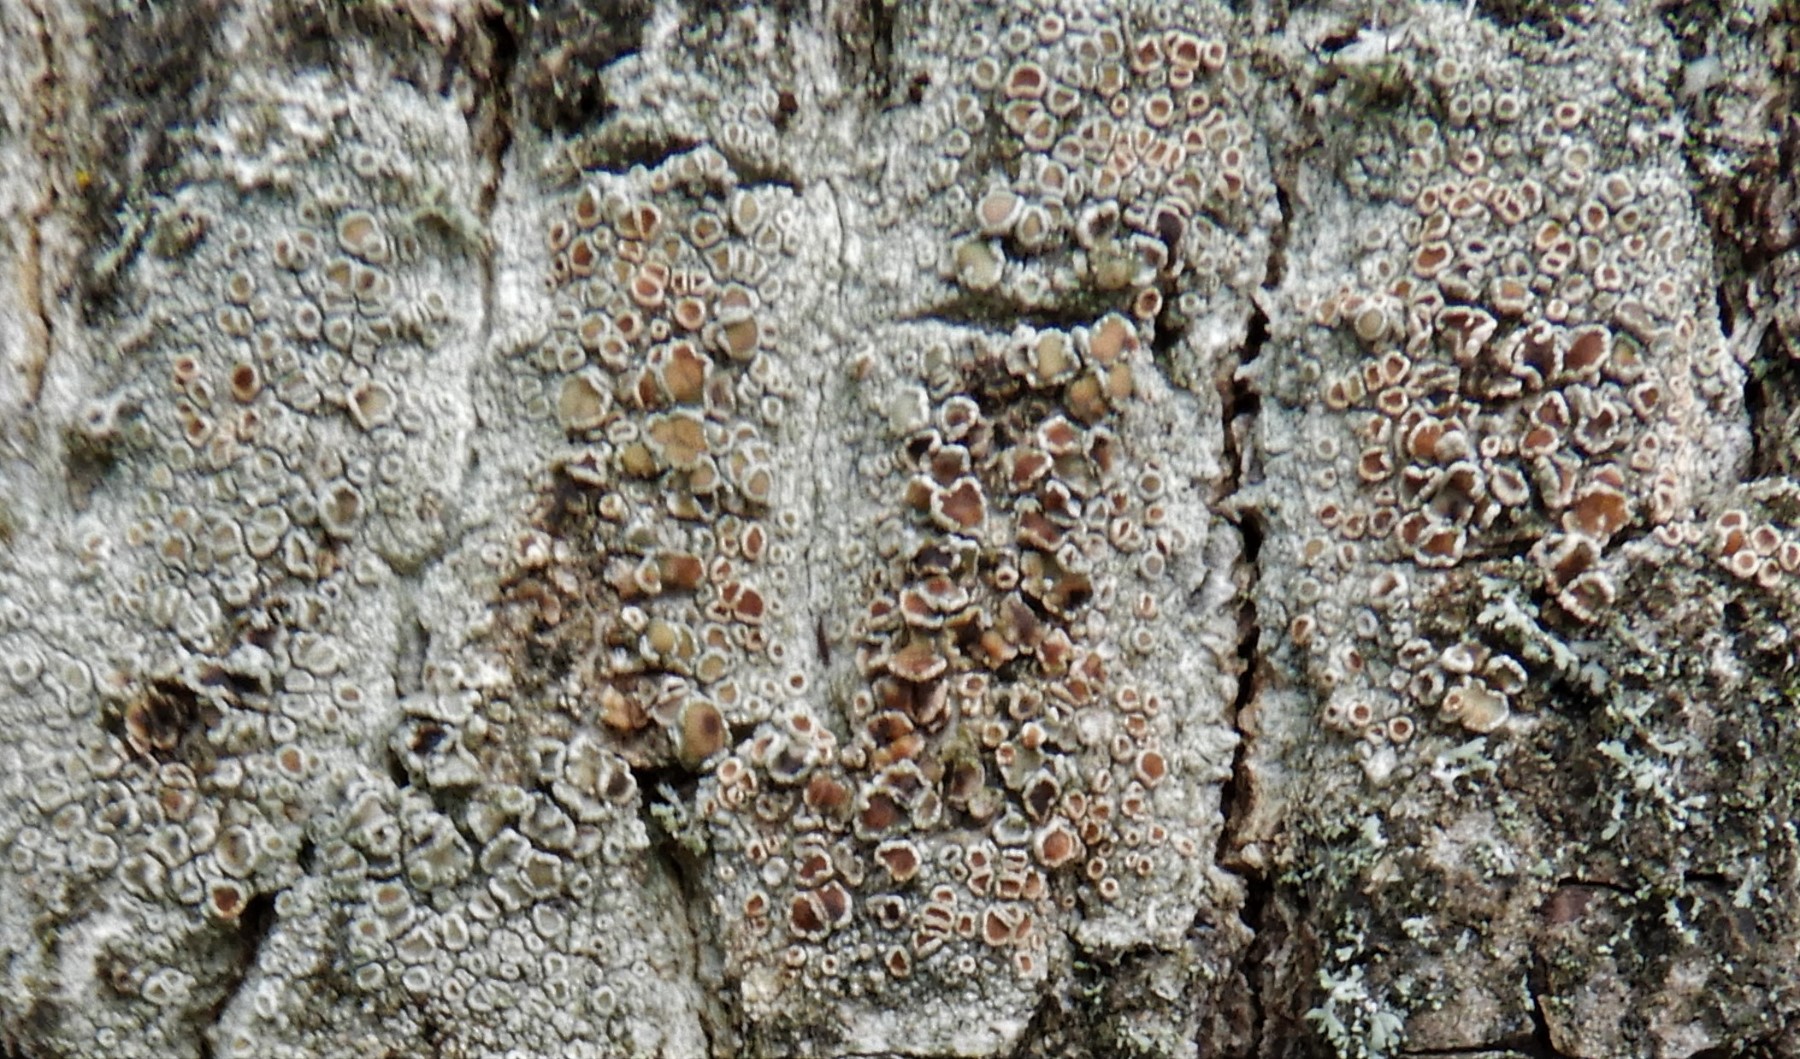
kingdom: Fungi
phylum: Ascomycota
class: Lecanoromycetes
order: Lecanorales
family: Lecanoraceae
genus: Lecanora
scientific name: Lecanora chlarotera
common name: brun kantskivelav
